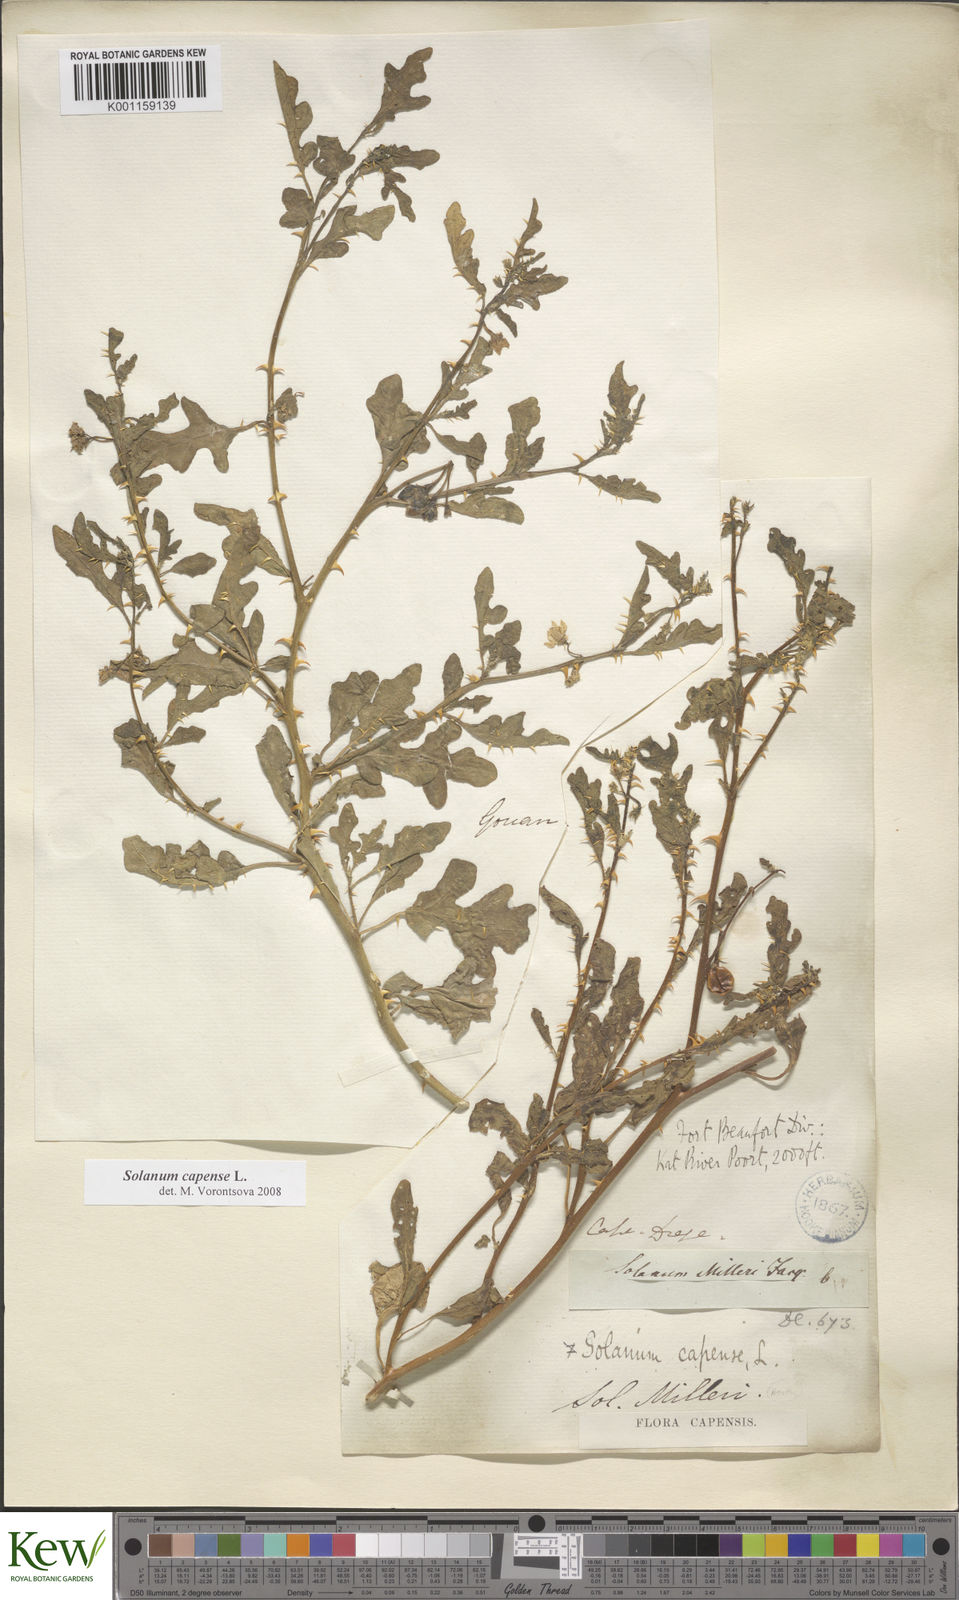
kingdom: Plantae
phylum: Tracheophyta
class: Magnoliopsida
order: Solanales
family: Solanaceae
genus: Solanum
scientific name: Solanum capense
